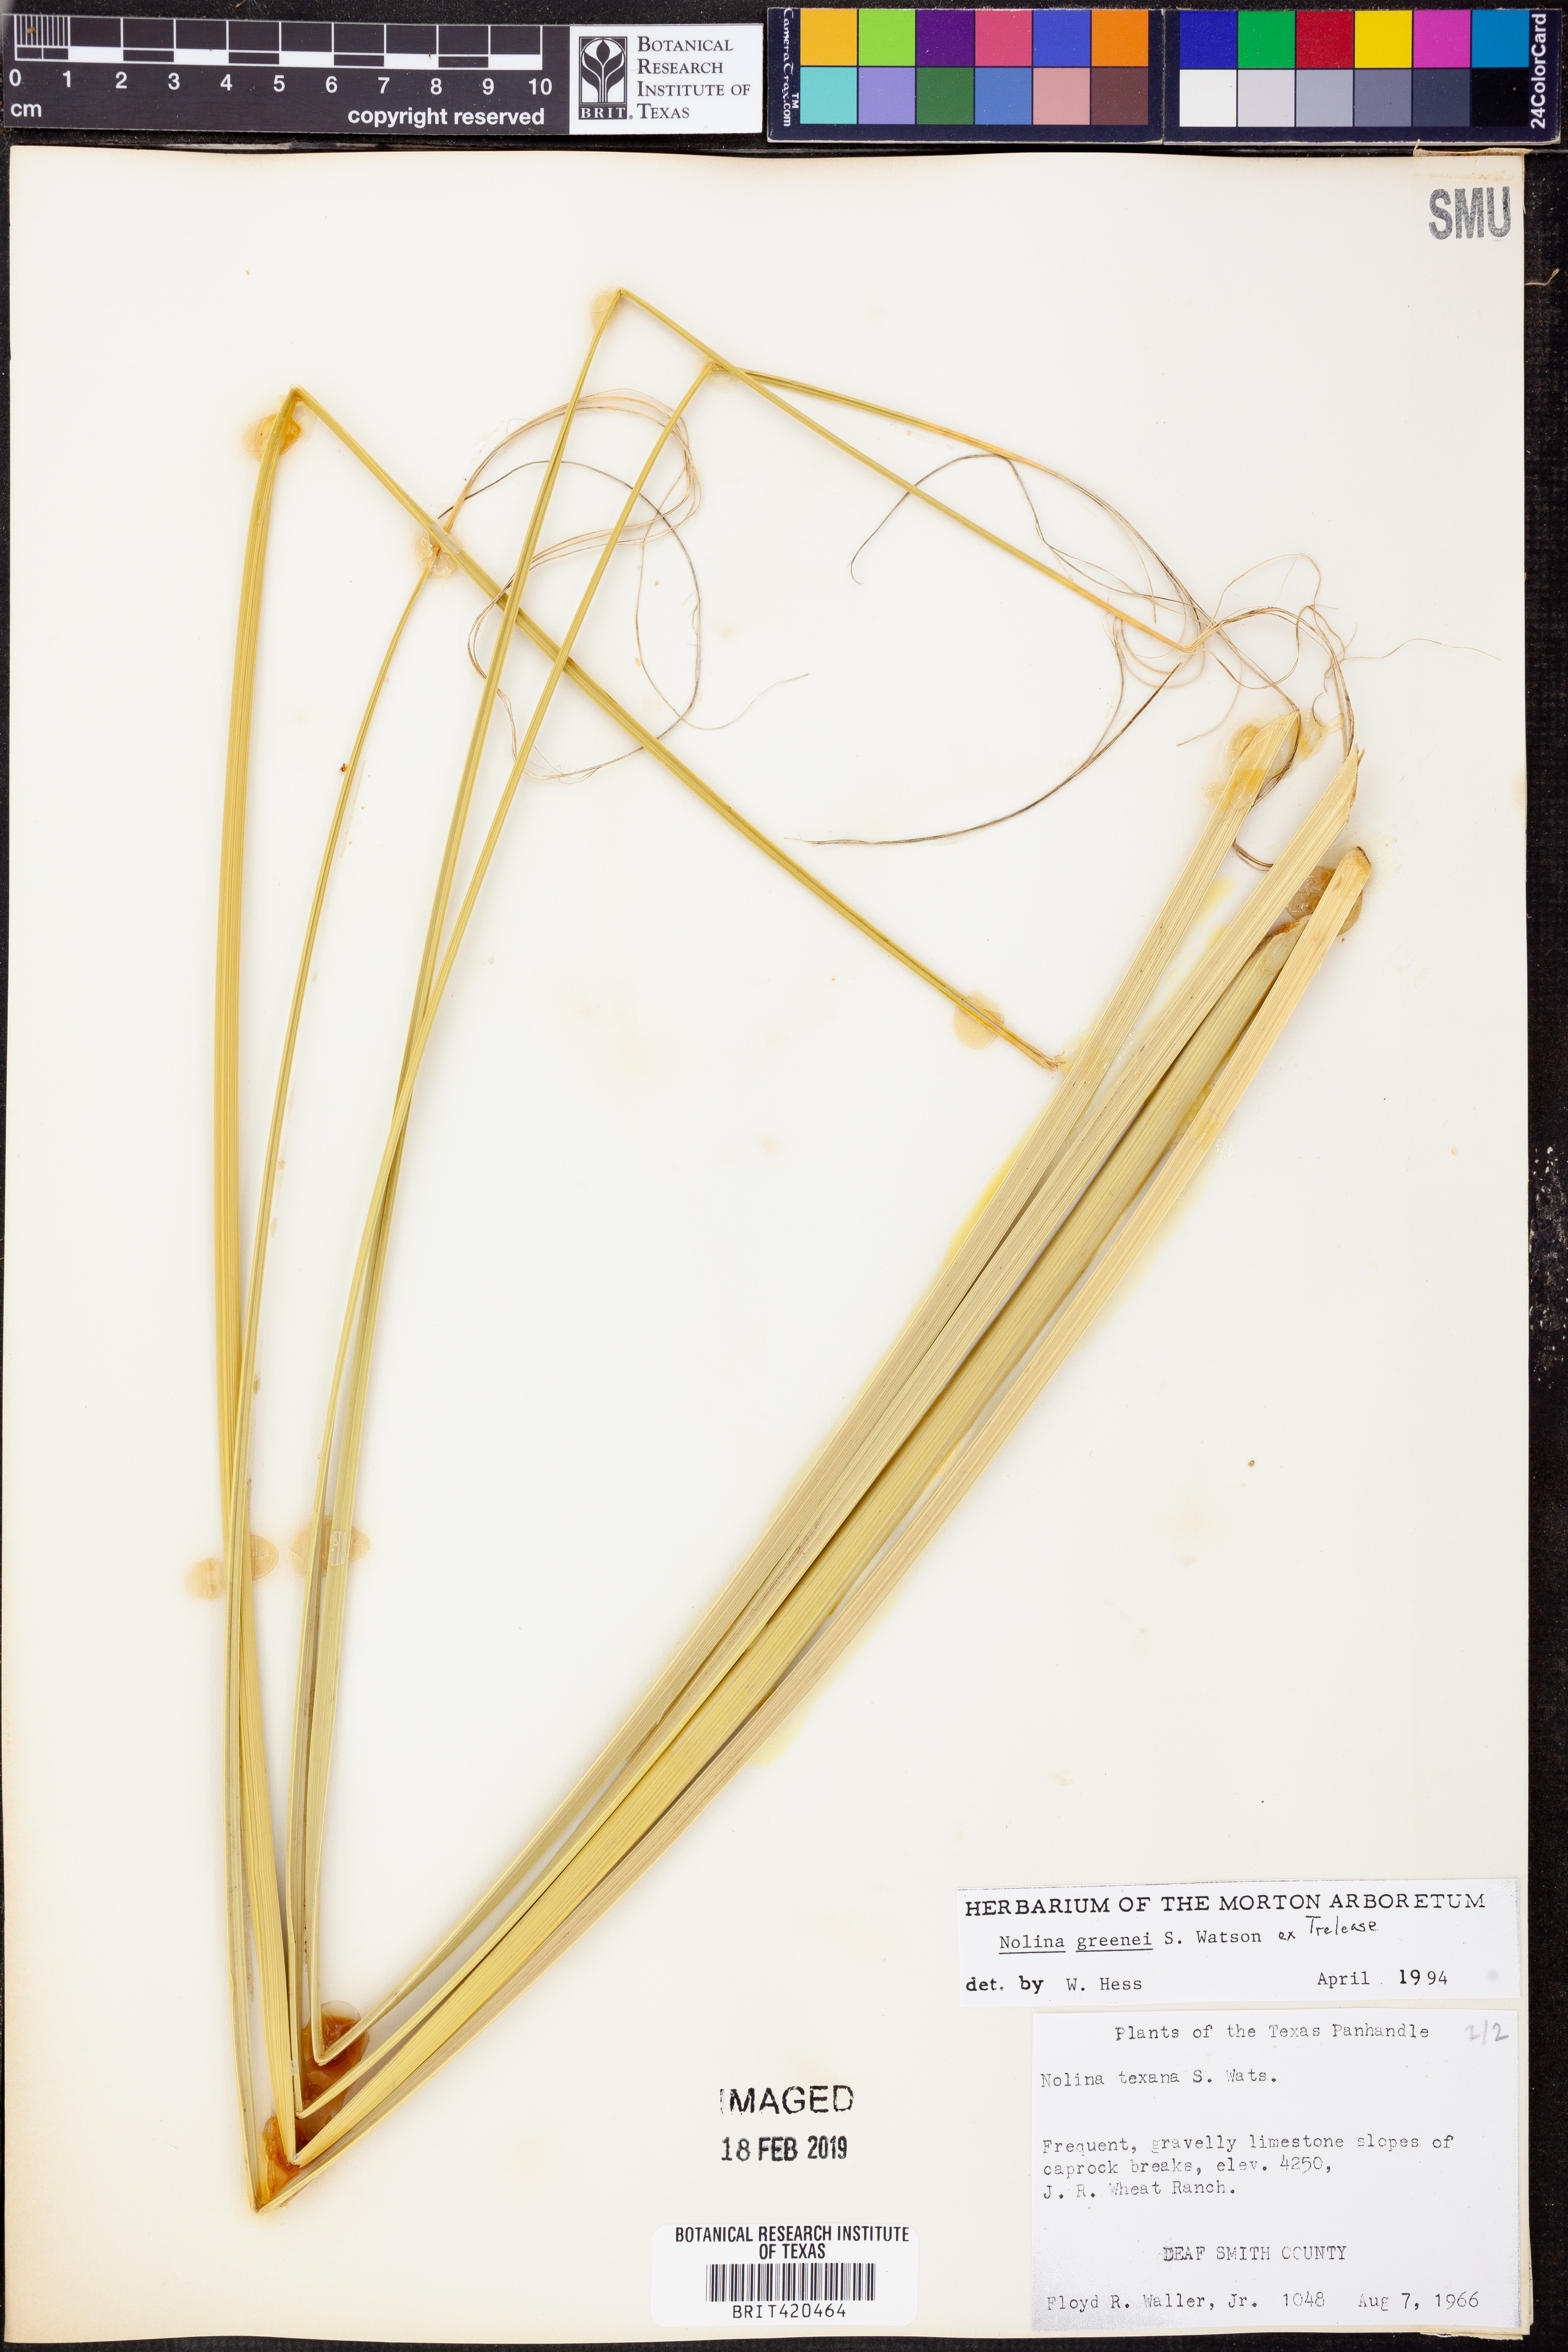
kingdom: Plantae
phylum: Tracheophyta
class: Liliopsida
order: Asparagales
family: Asparagaceae
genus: Nolina
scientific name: Nolina greenei
